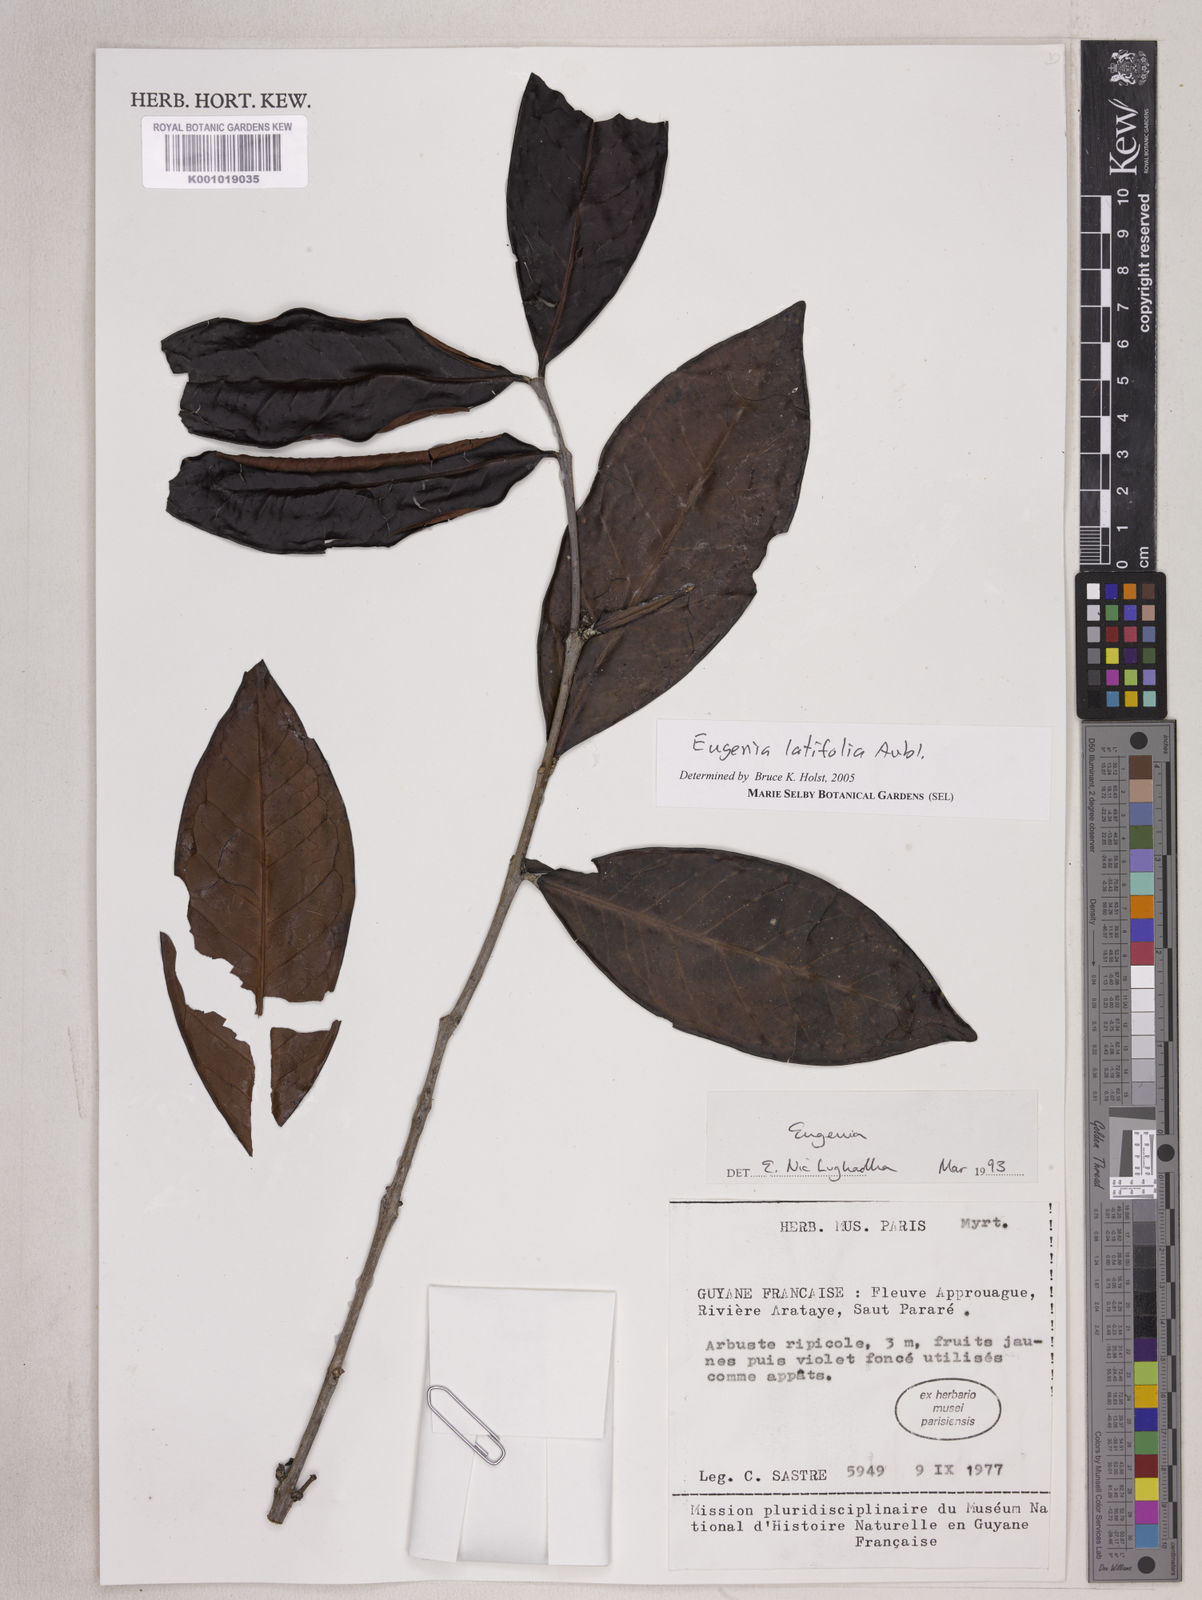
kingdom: Plantae
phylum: Tracheophyta
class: Magnoliopsida
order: Myrtales
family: Myrtaceae
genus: Eugenia
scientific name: Eugenia latifolia
